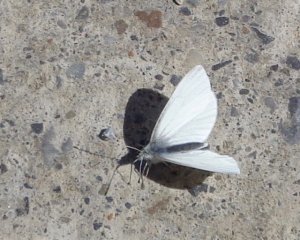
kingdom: Animalia
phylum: Arthropoda
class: Insecta
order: Lepidoptera
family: Pieridae
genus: Pieris
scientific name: Pieris virginiensis
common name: West Virginia White
